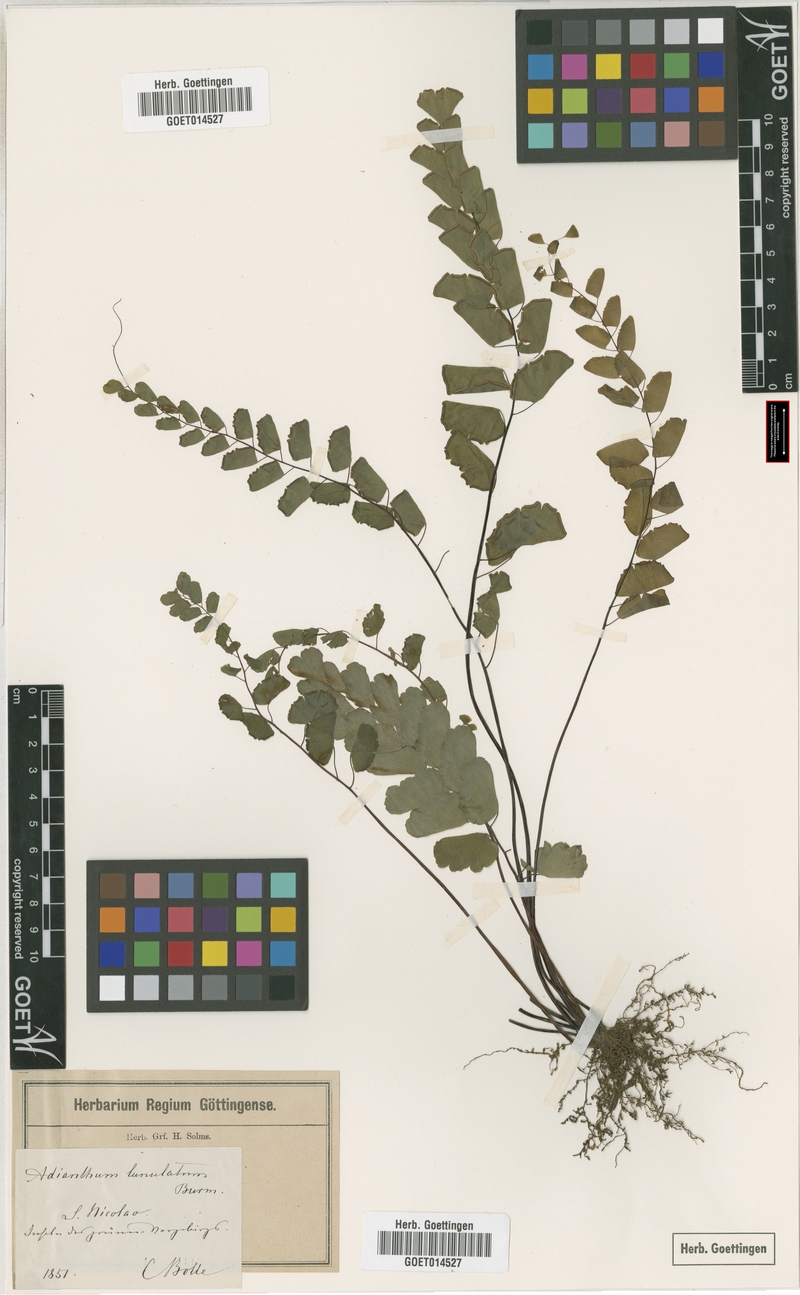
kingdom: Plantae
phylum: Tracheophyta
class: Polypodiopsida
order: Polypodiales
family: Pteridaceae
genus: Adiantum
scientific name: Adiantum philippense
